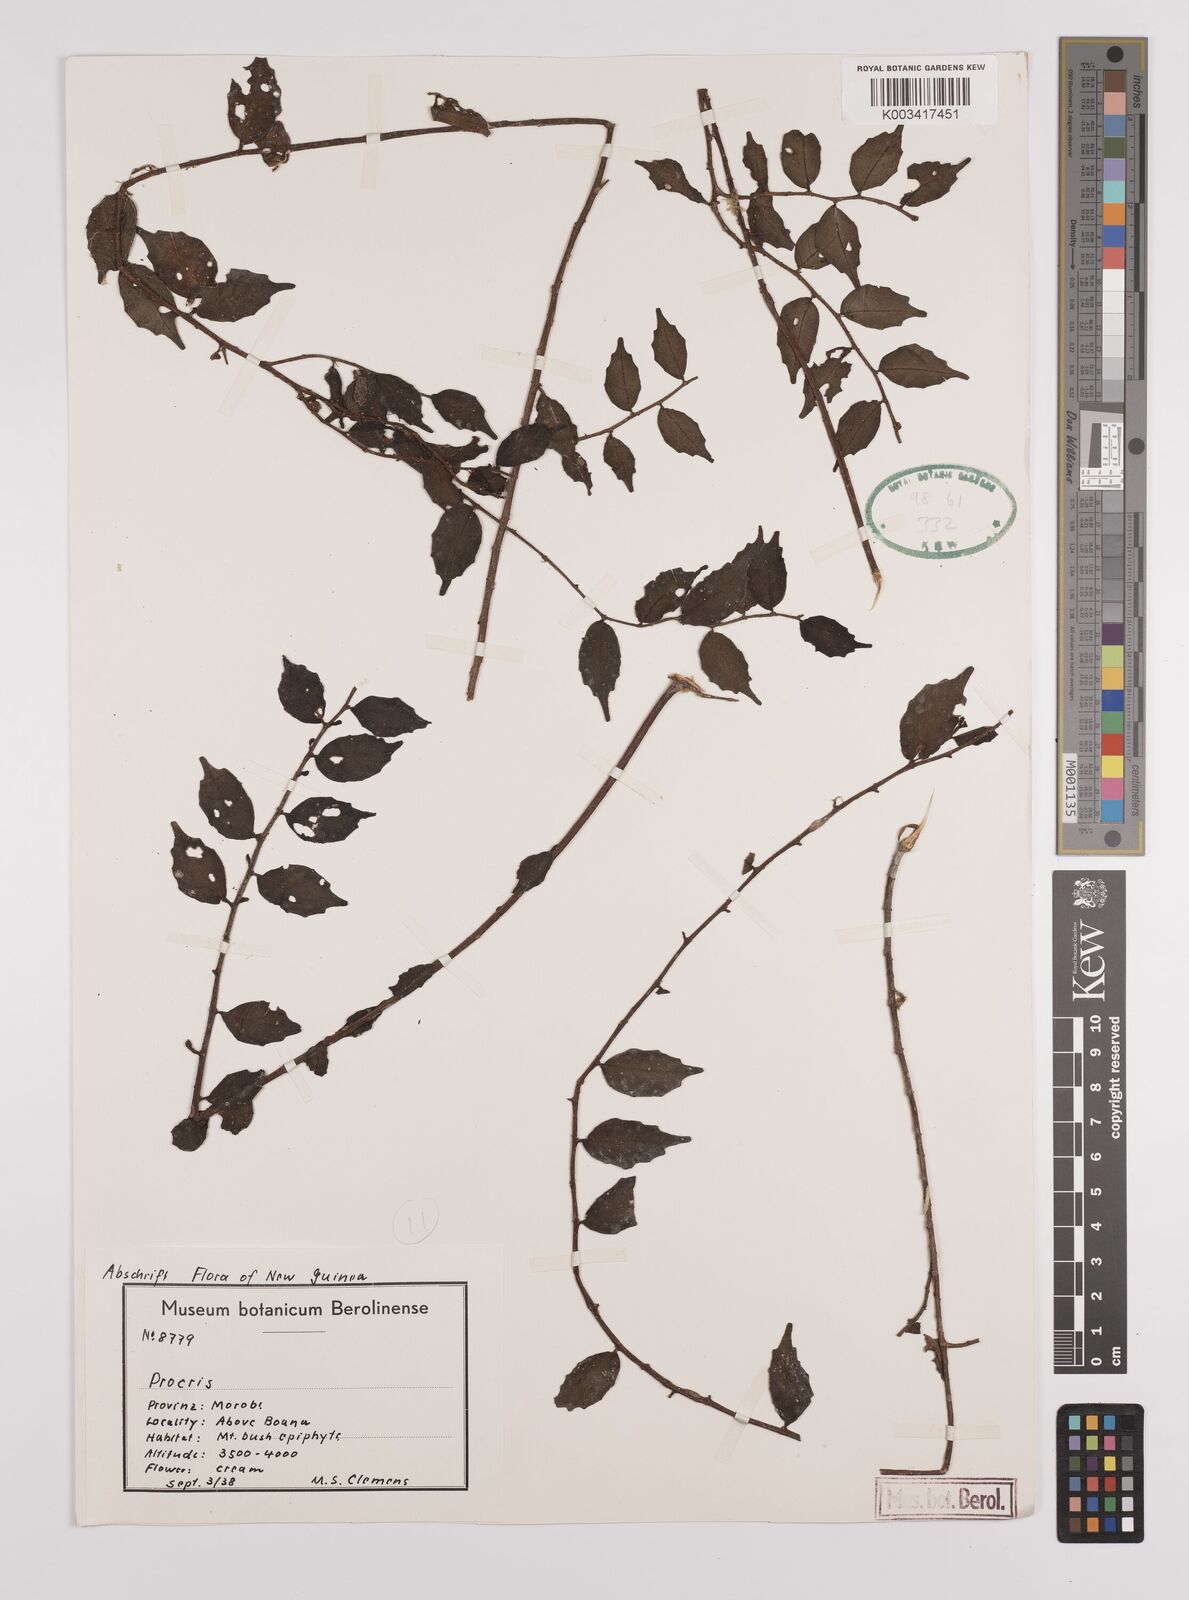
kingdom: Plantae
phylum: Tracheophyta
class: Magnoliopsida
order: Rosales
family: Urticaceae
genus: Procris
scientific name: Procris
